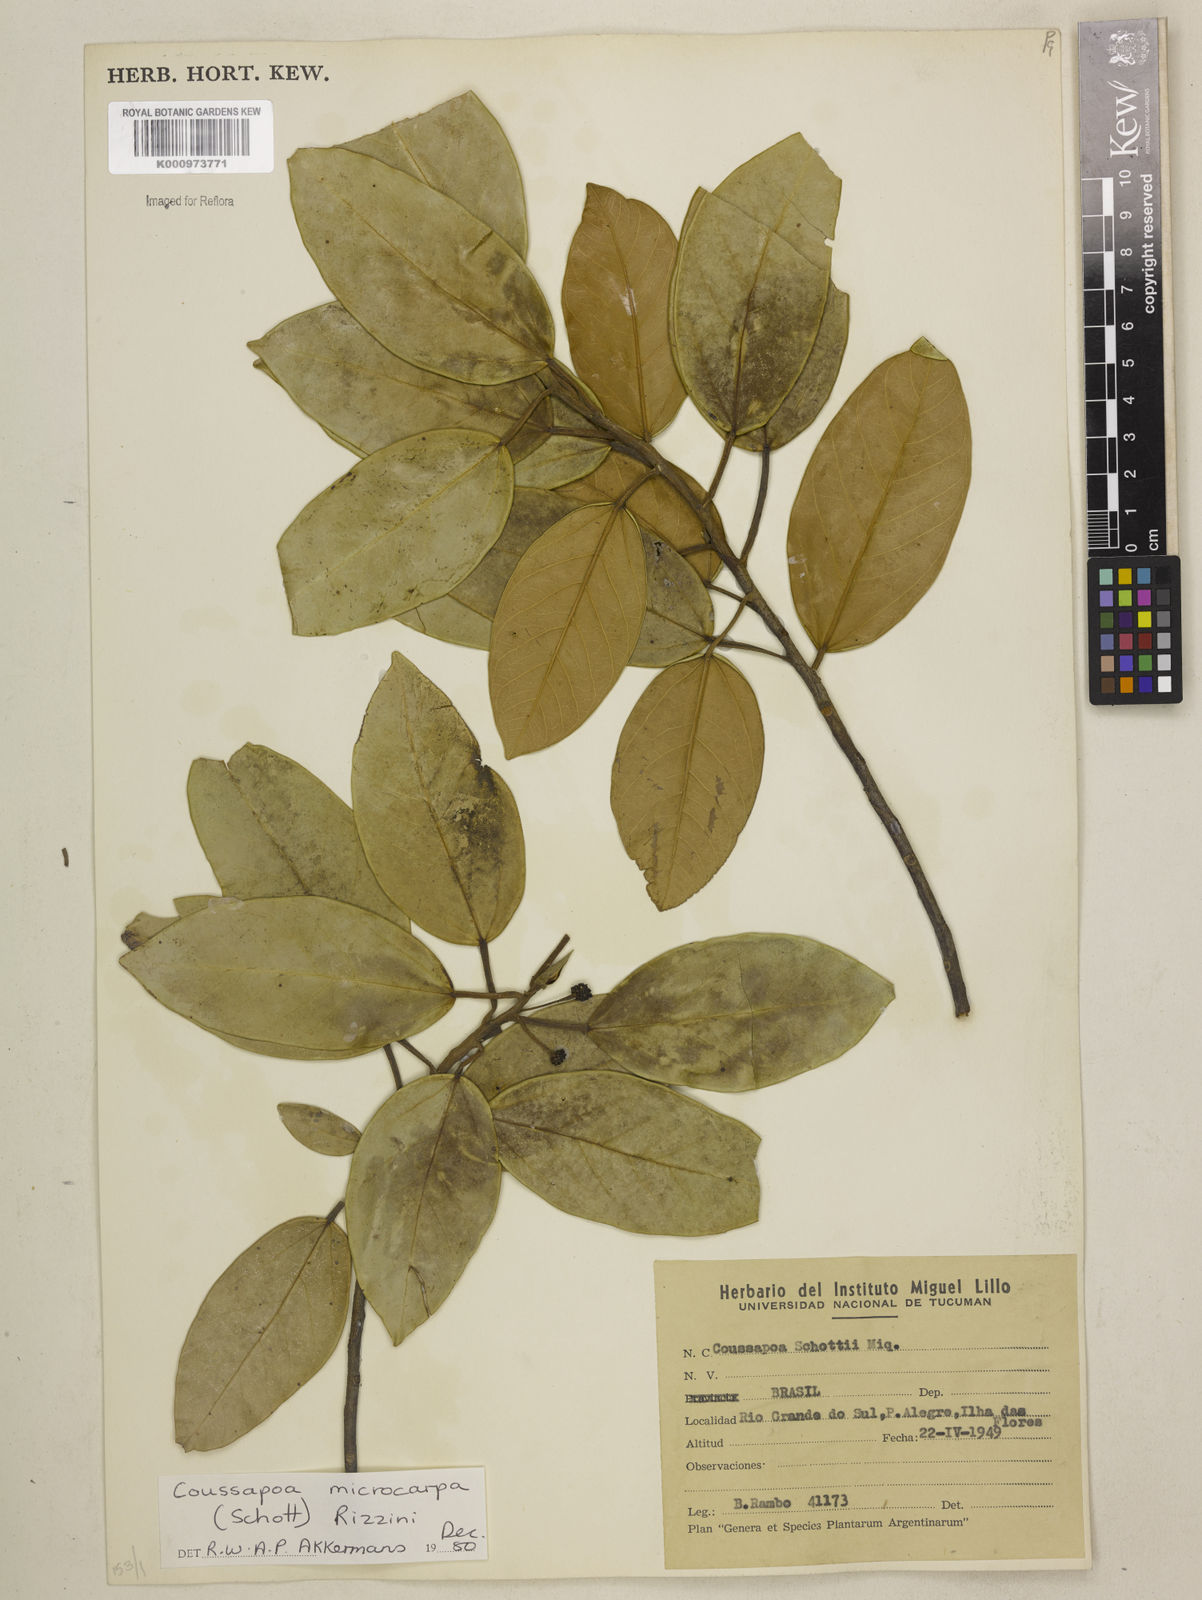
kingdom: Plantae
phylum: Tracheophyta
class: Magnoliopsida
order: Rosales
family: Urticaceae
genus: Coussapoa
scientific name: Coussapoa microcarpa
